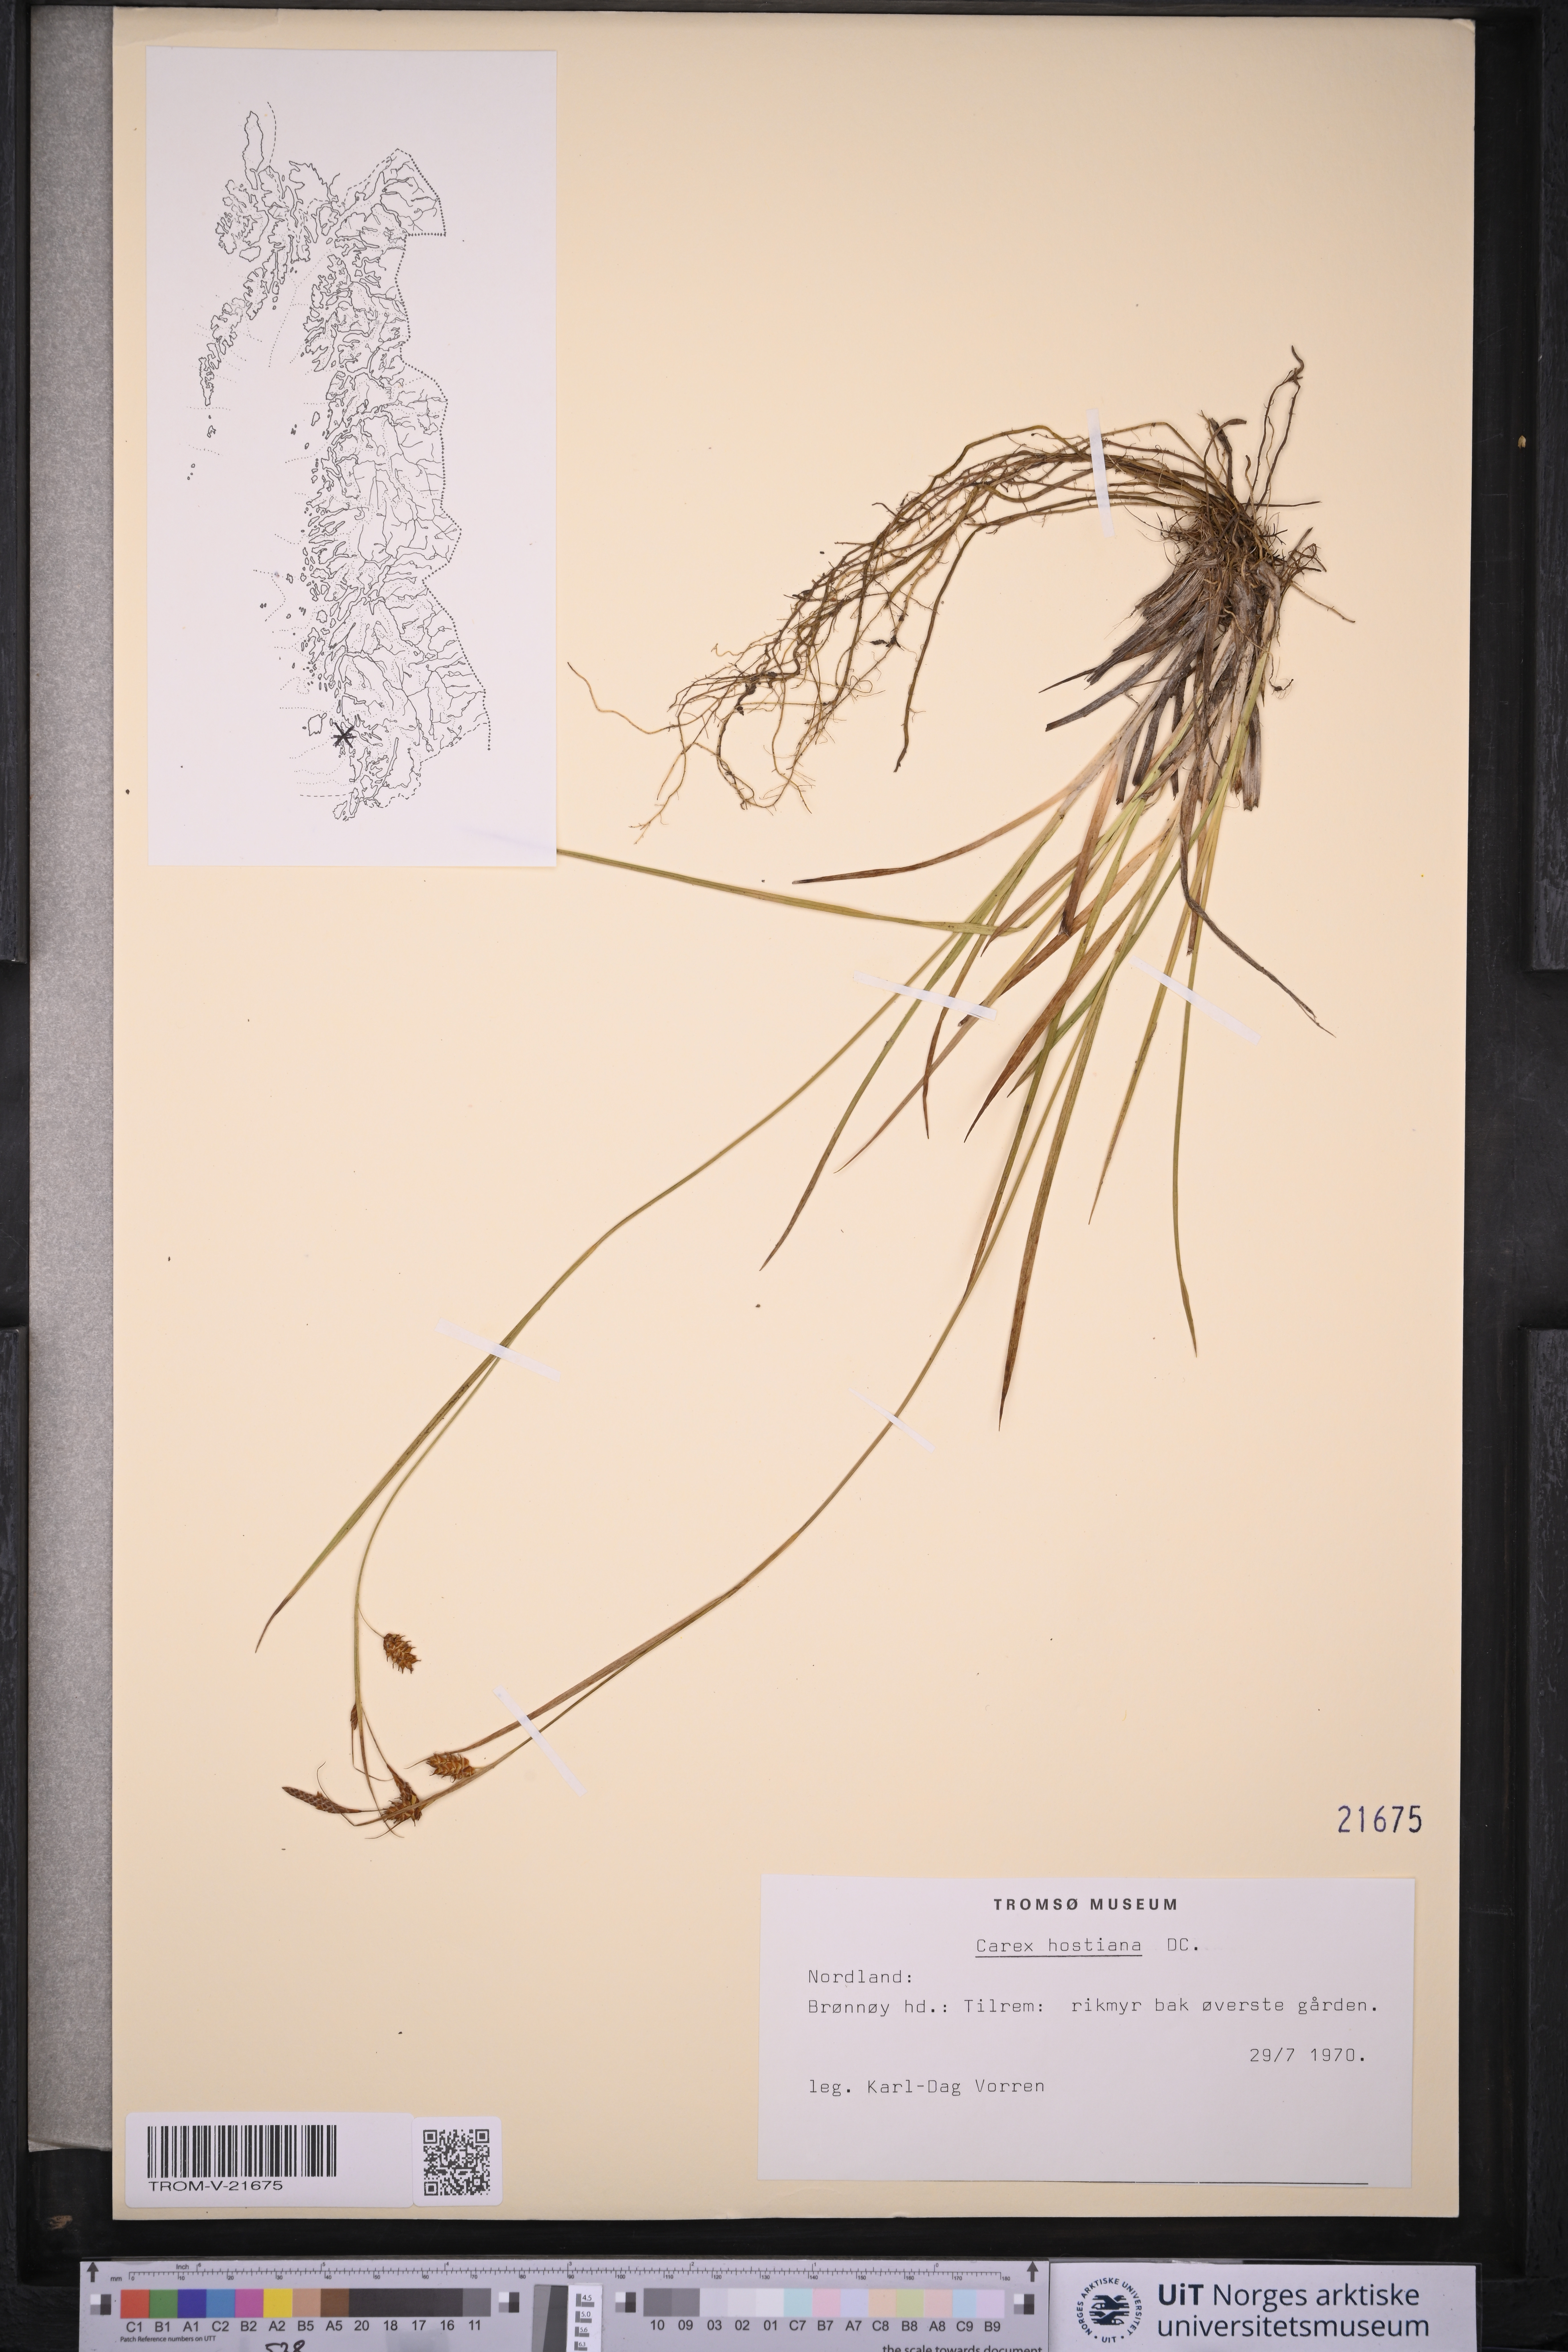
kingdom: Plantae
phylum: Tracheophyta
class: Liliopsida
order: Poales
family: Cyperaceae
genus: Carex
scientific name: Carex hostiana
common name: Tawny sedge
